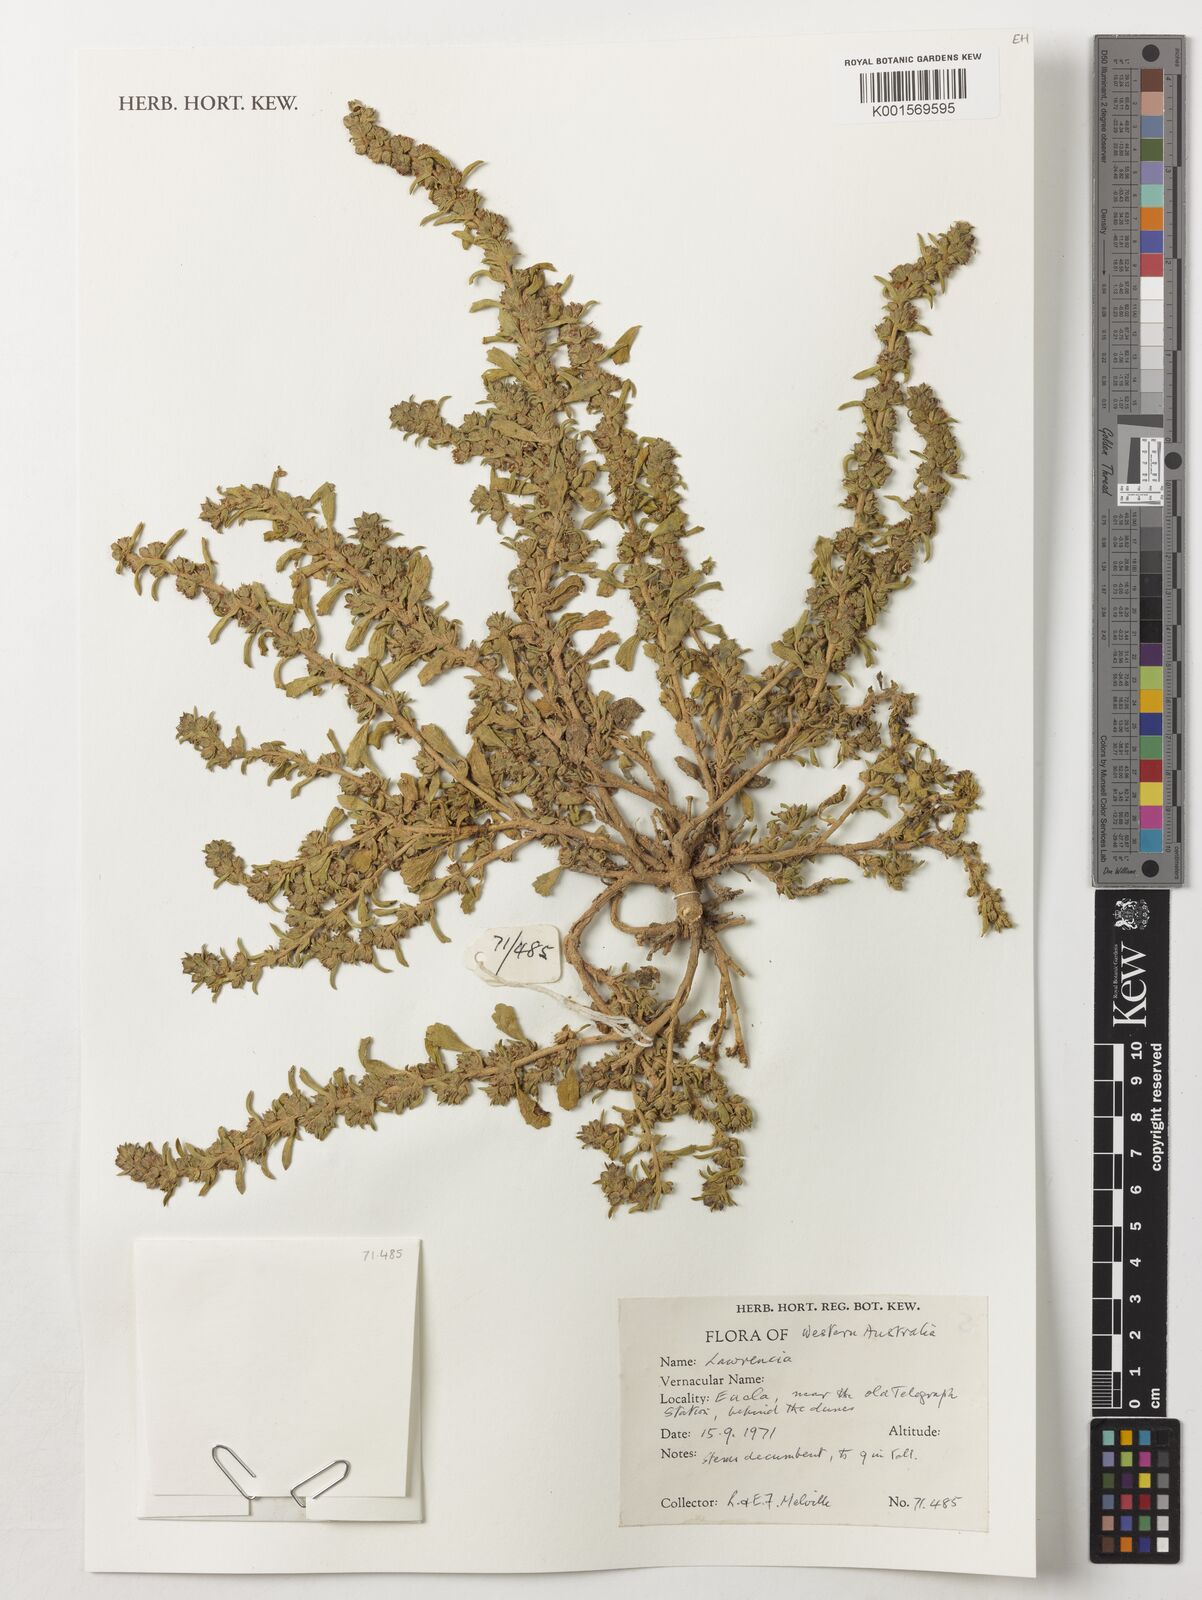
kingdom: Plantae
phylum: Tracheophyta
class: Magnoliopsida
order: Malvales
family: Malvaceae
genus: Lawrencia
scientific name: Lawrencia
